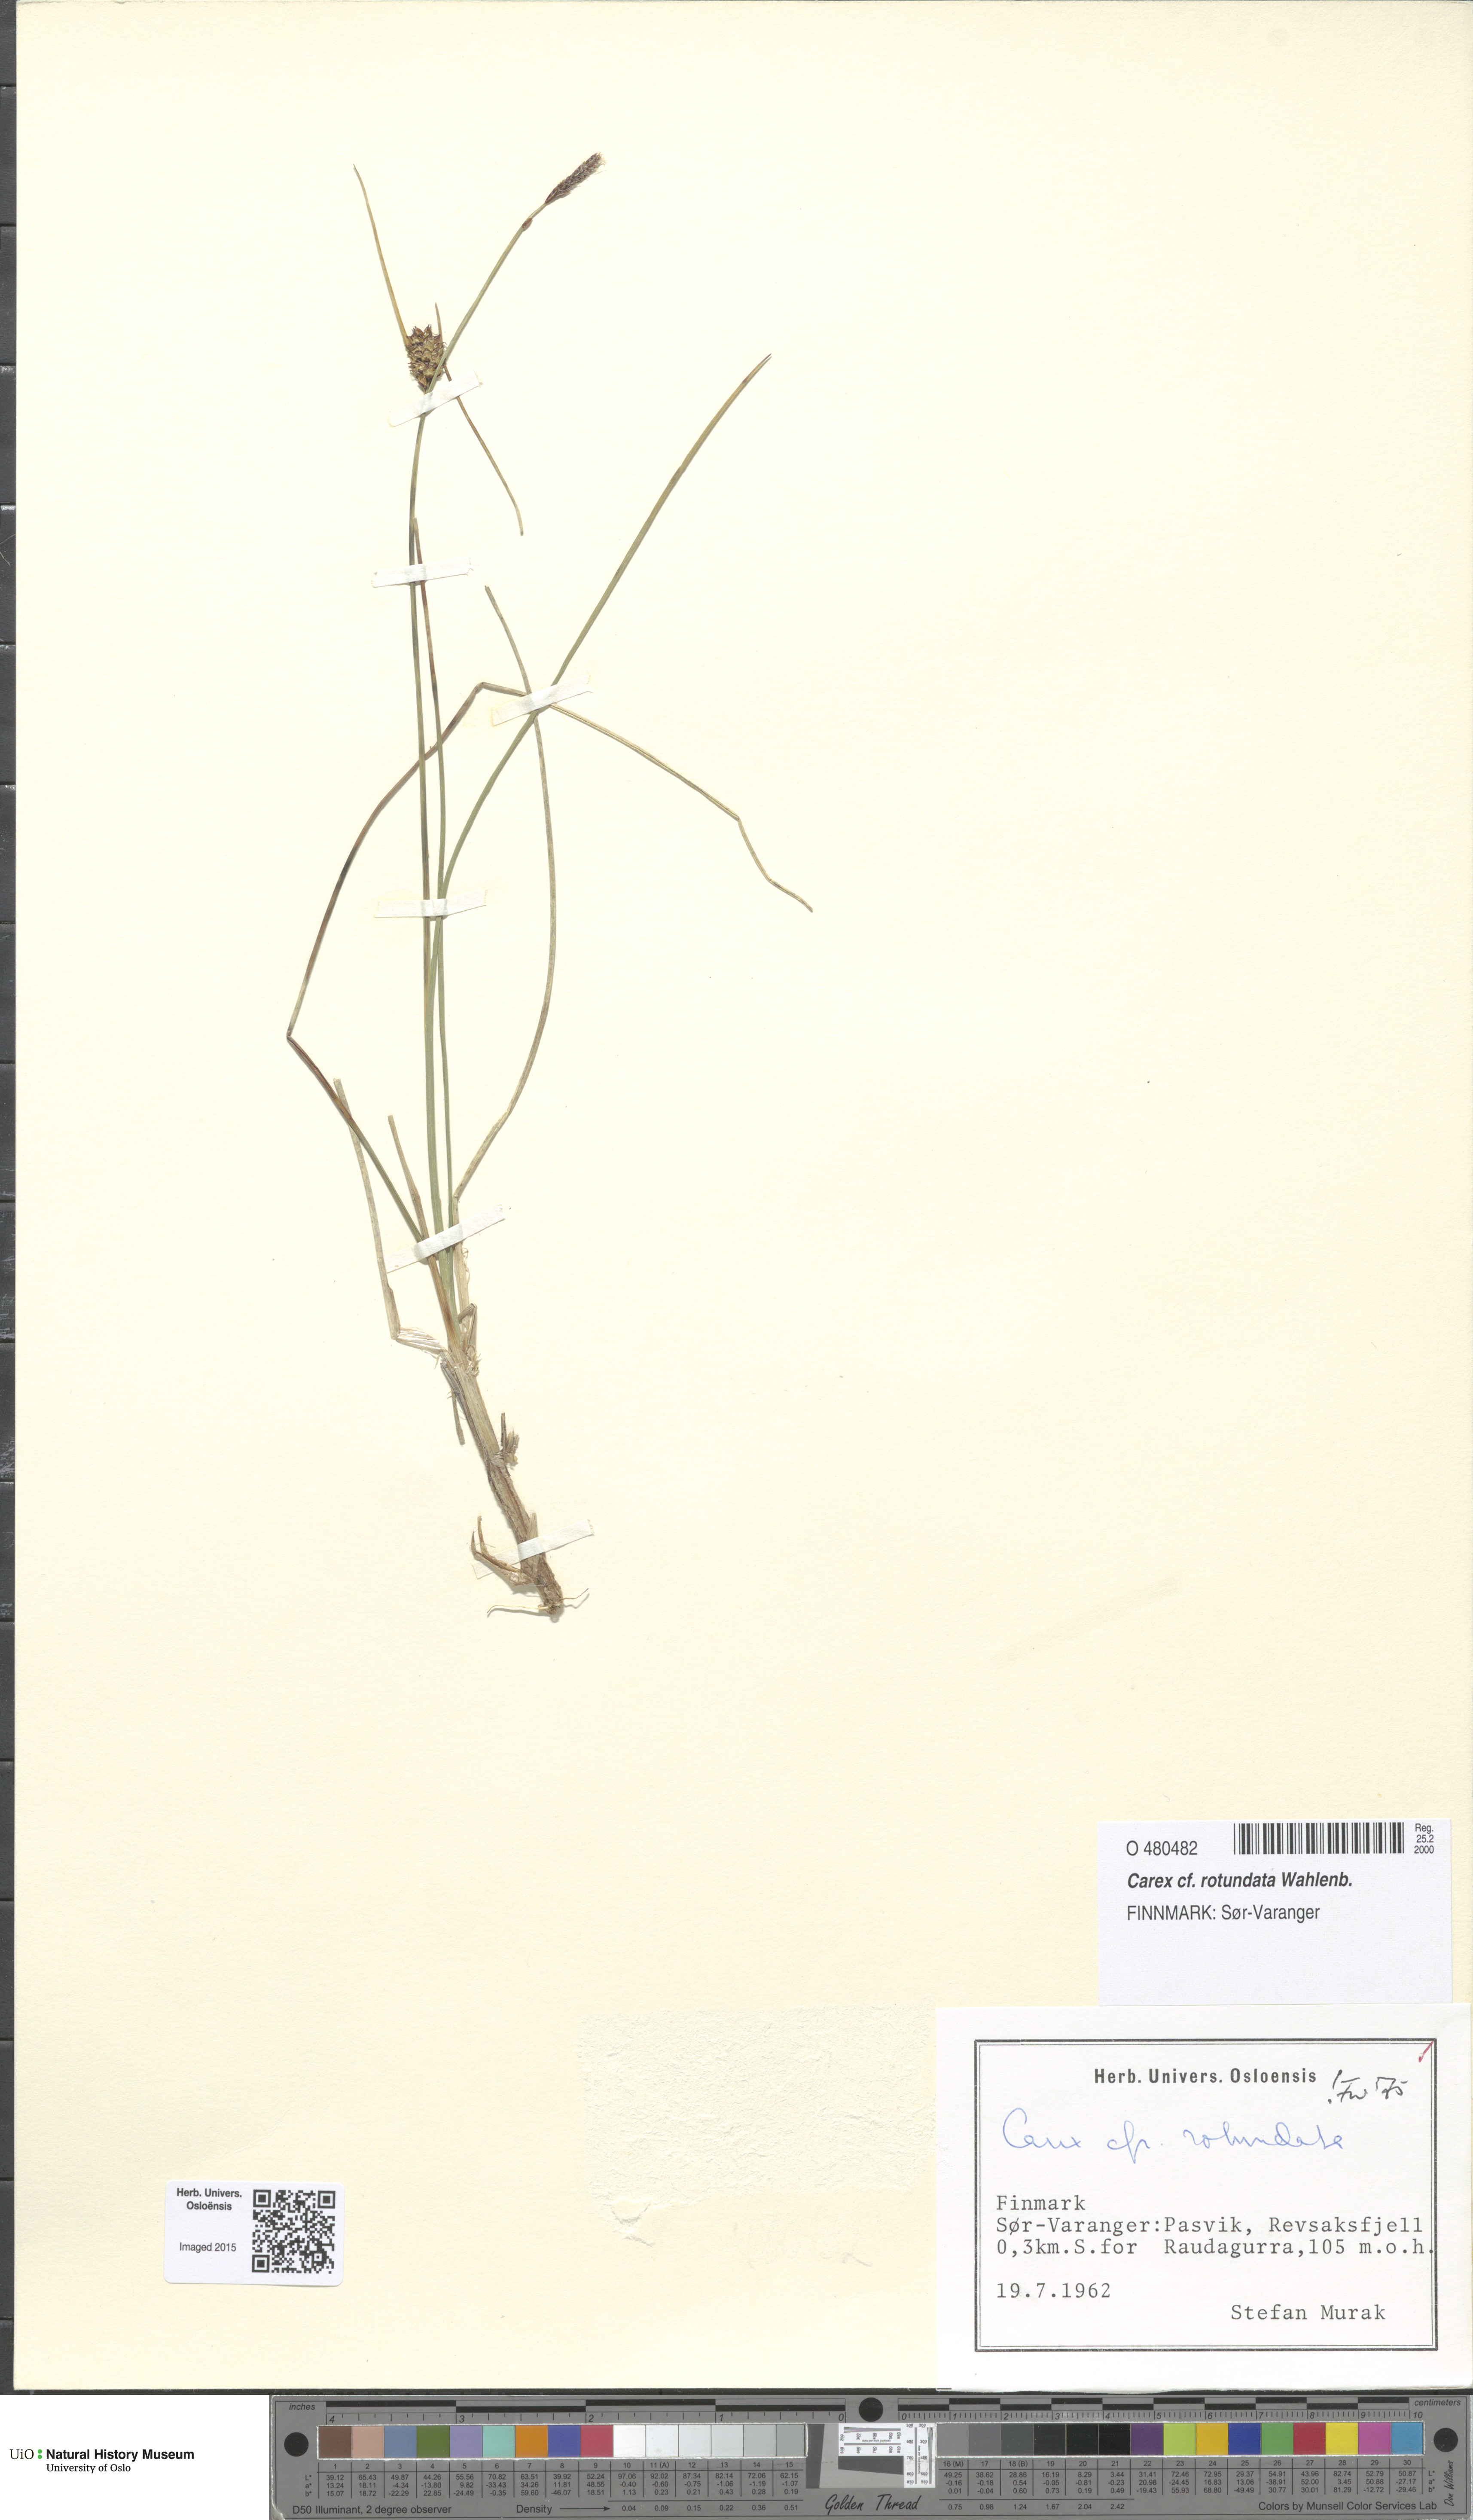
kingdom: Plantae
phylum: Tracheophyta
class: Liliopsida
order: Poales
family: Cyperaceae
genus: Carex
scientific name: Carex rotundata
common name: Round-fruited sedge
